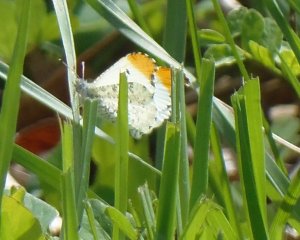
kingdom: Animalia
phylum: Arthropoda
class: Insecta
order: Lepidoptera
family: Pieridae
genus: Anthocharis
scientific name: Anthocharis midea
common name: Falcate Orangetip
